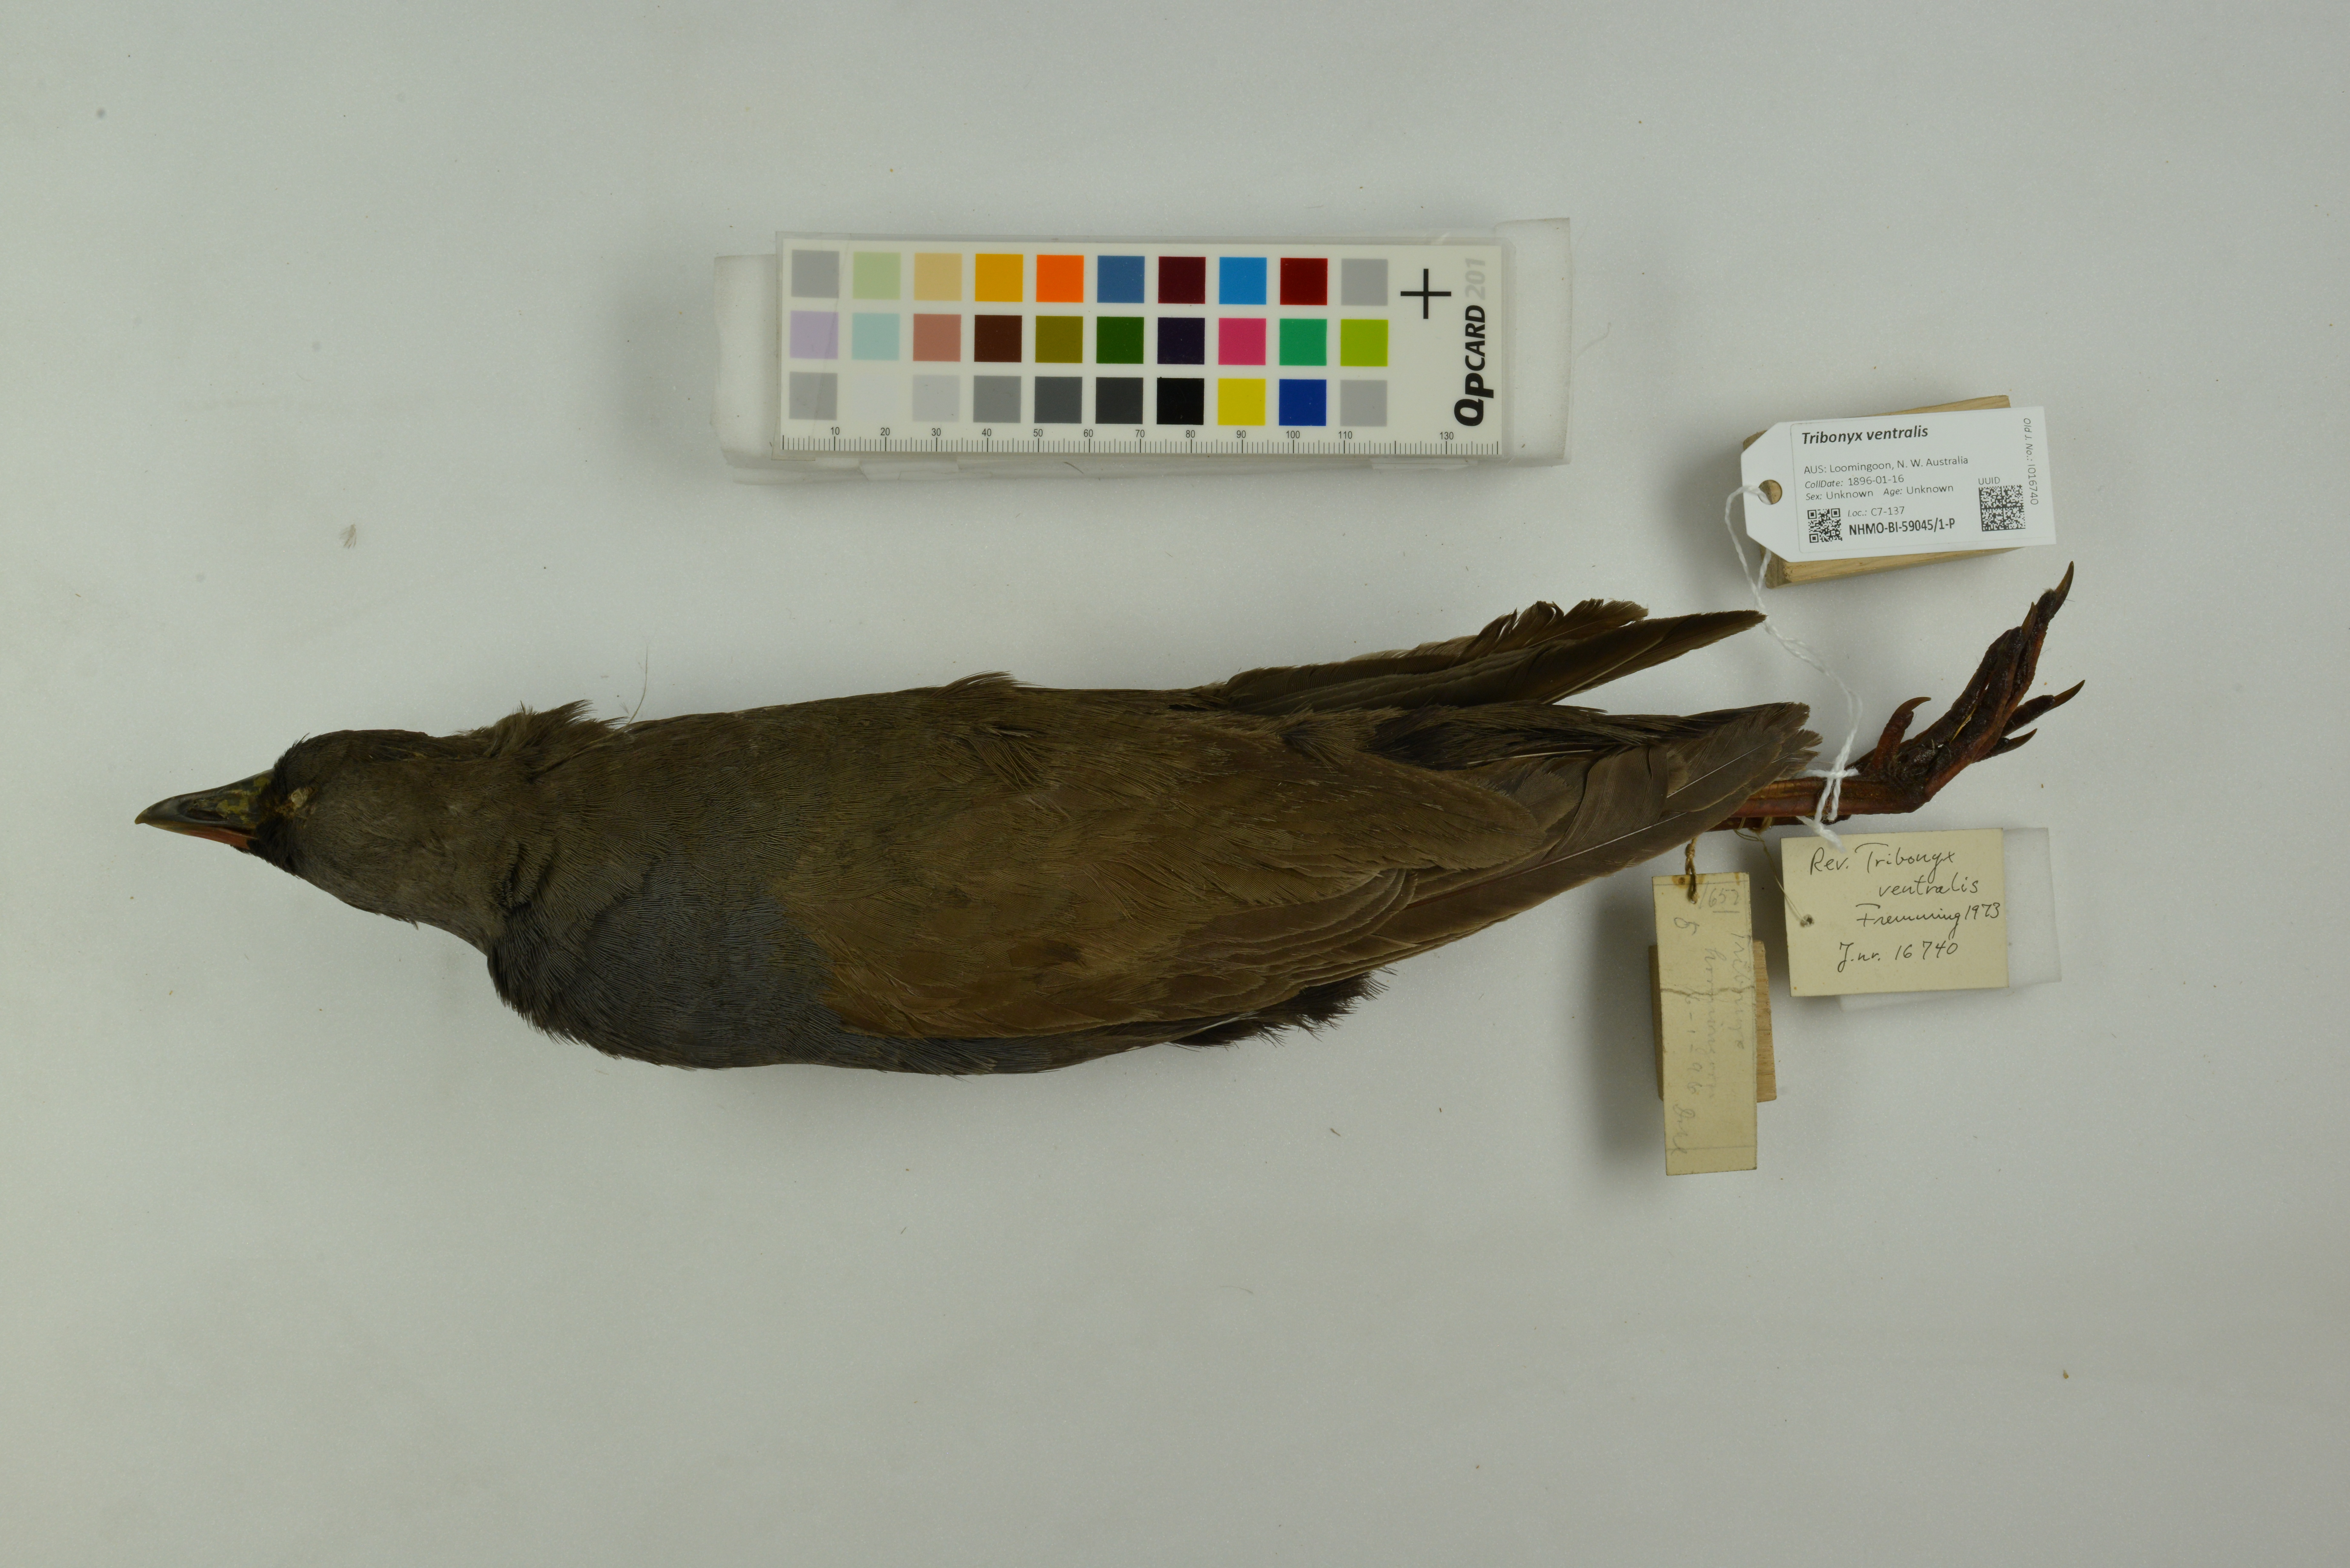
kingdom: Animalia
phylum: Chordata
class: Aves
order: Gruiformes
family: Rallidae
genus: Gallinula
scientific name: Gallinula ventralis
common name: Black-tailed nativehen
